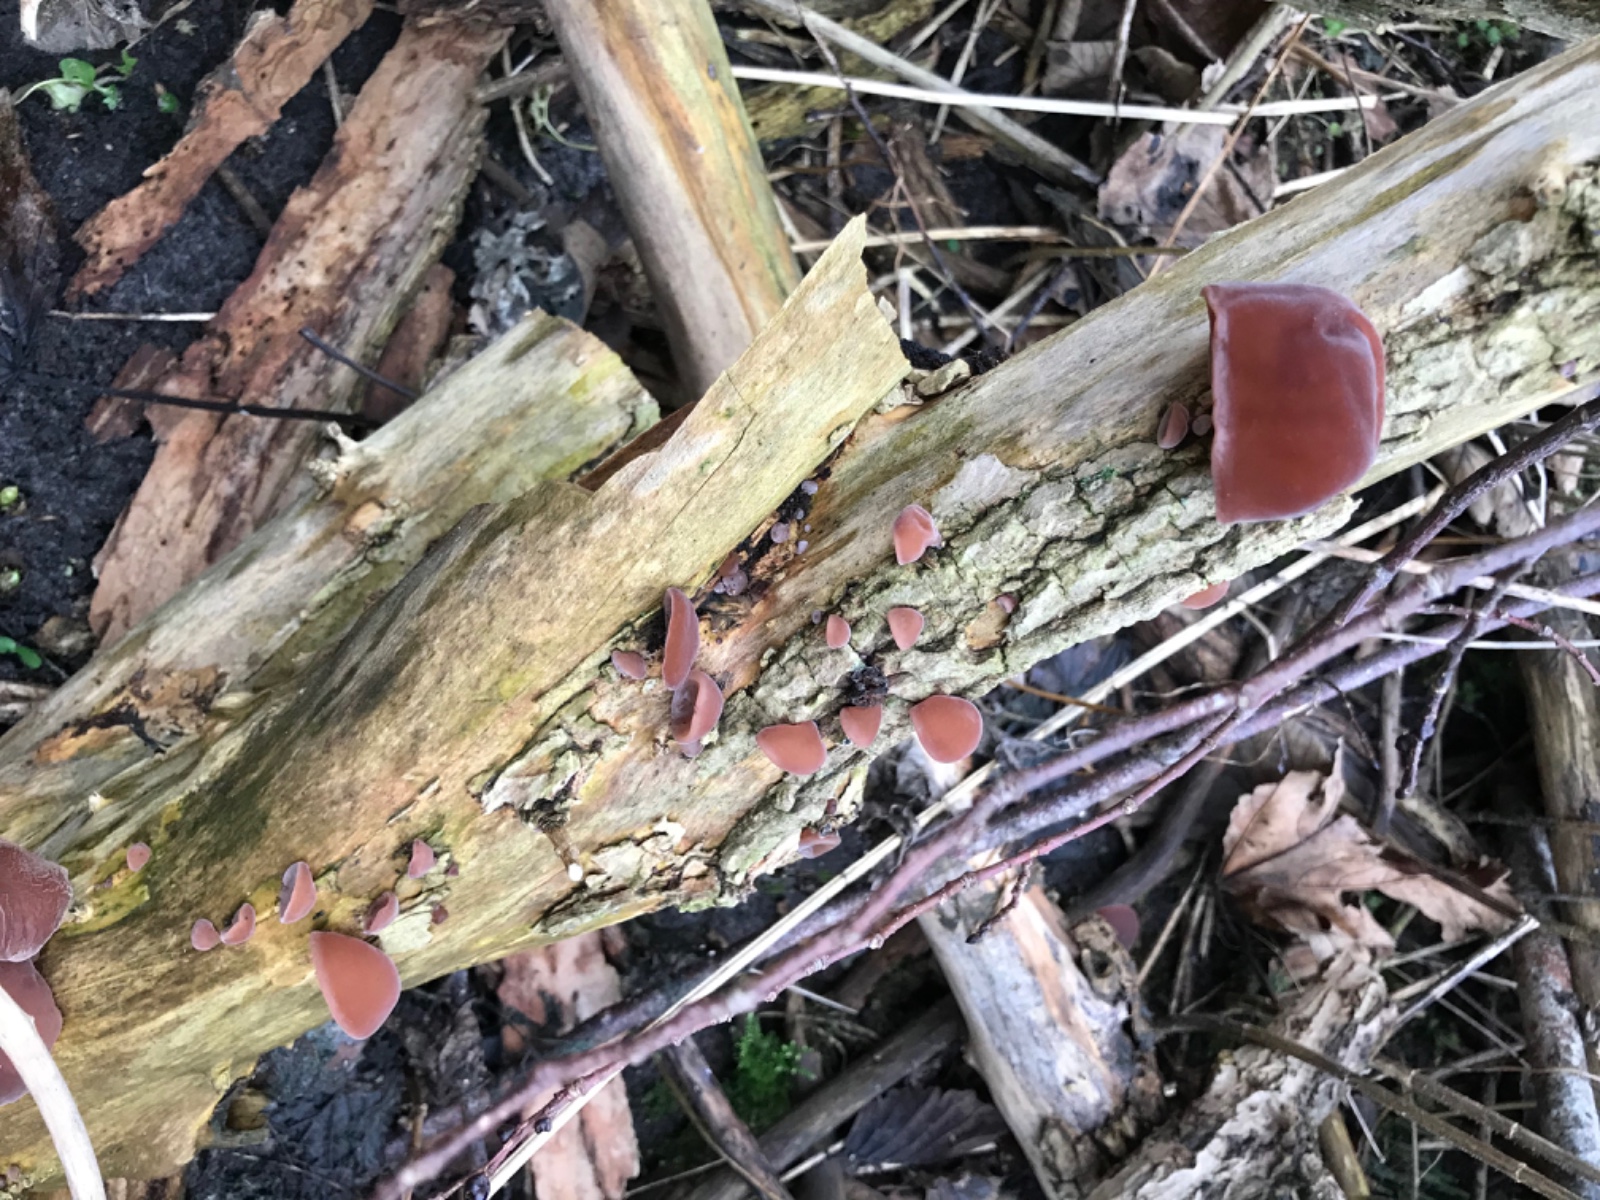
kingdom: Fungi
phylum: Basidiomycota
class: Agaricomycetes
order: Auriculariales
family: Auriculariaceae
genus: Auricularia
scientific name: Auricularia auricula-judae
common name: almindelig judasøre
